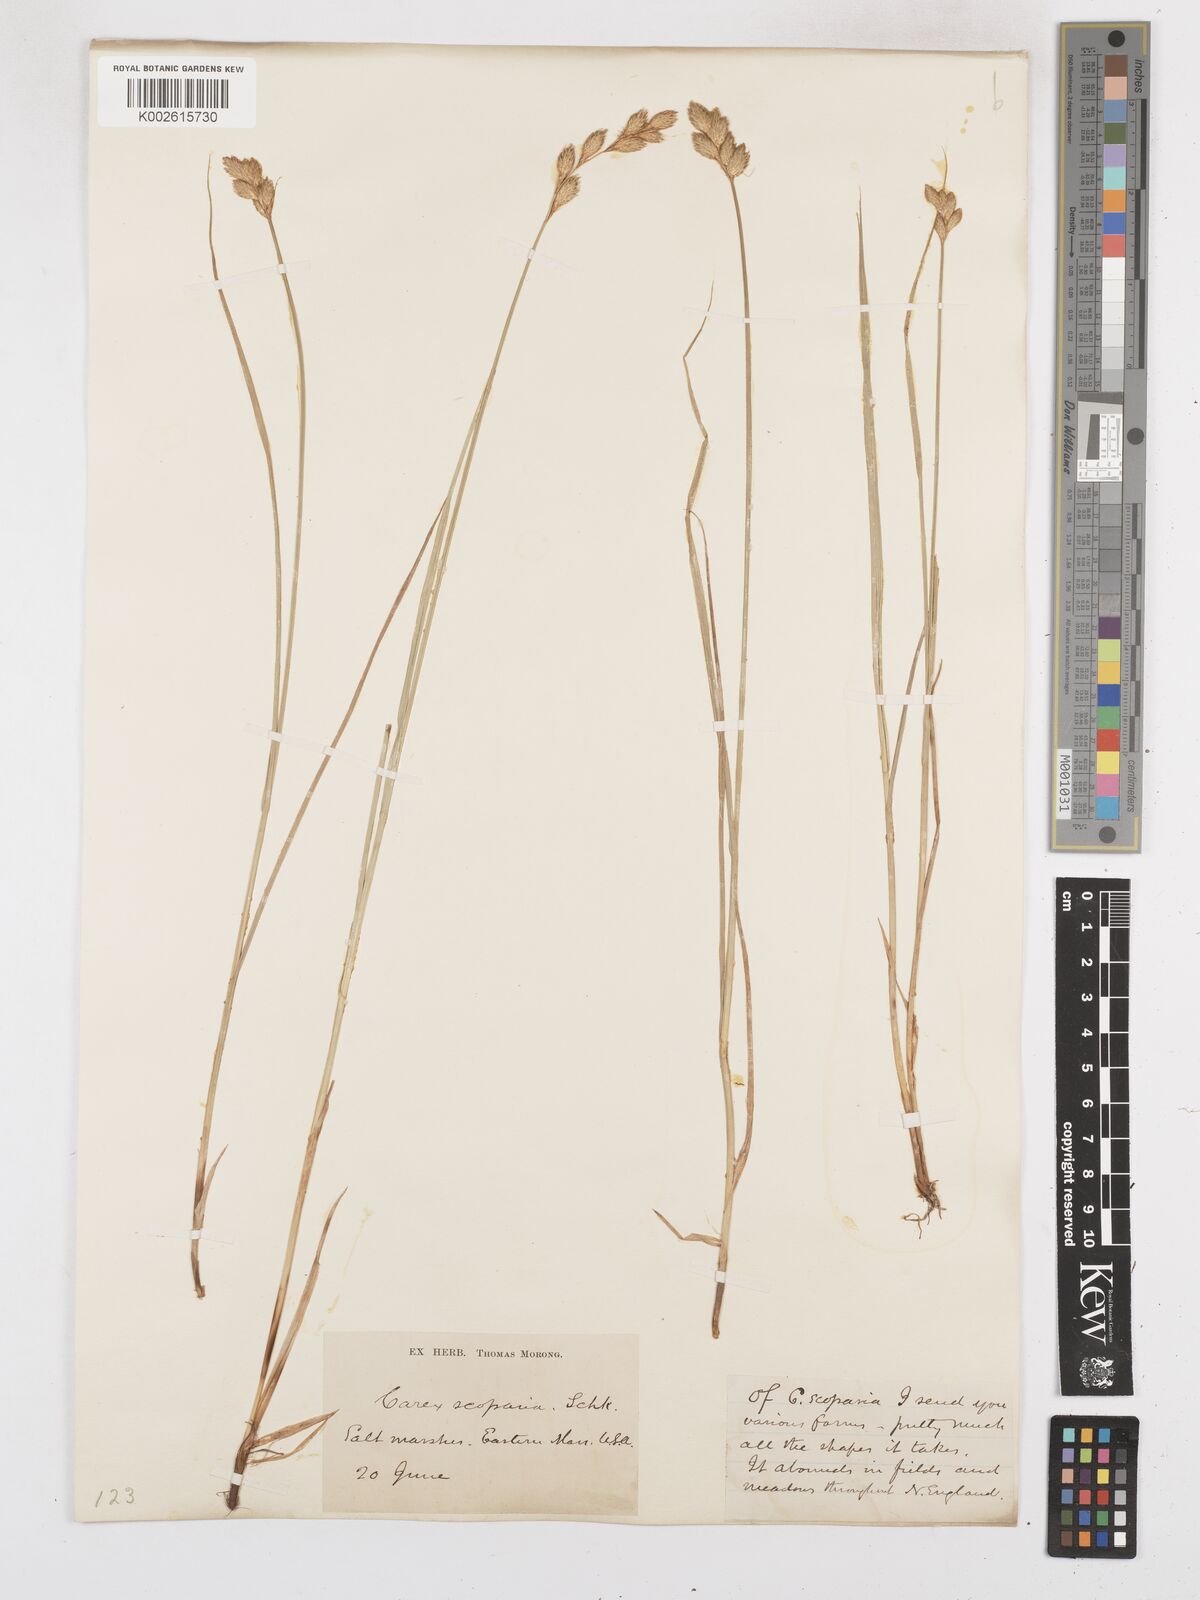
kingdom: Plantae
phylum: Tracheophyta
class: Liliopsida
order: Poales
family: Cyperaceae
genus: Carex
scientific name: Carex leporina
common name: Oval sedge
